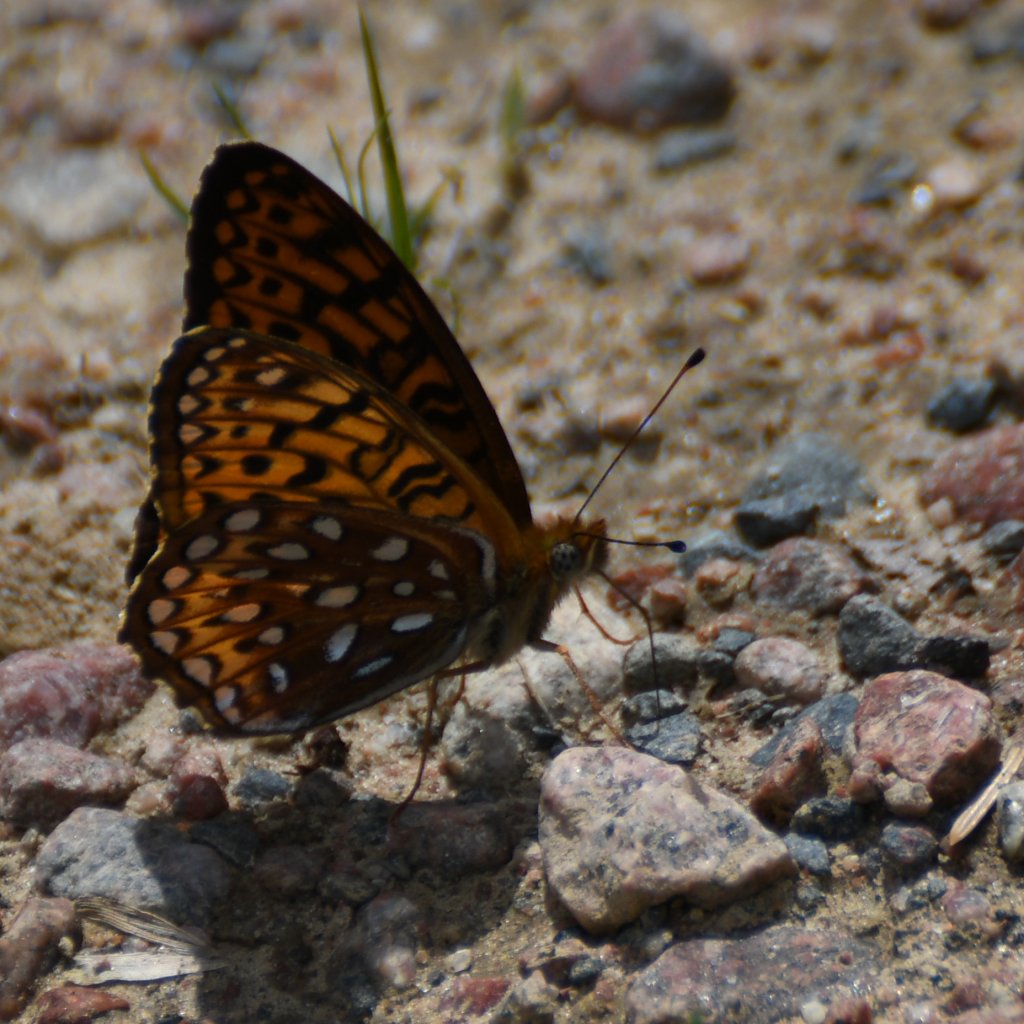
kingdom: Animalia
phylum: Arthropoda
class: Insecta
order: Lepidoptera
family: Nymphalidae
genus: Speyeria
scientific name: Speyeria atlantis
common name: Atlantis Fritillary
